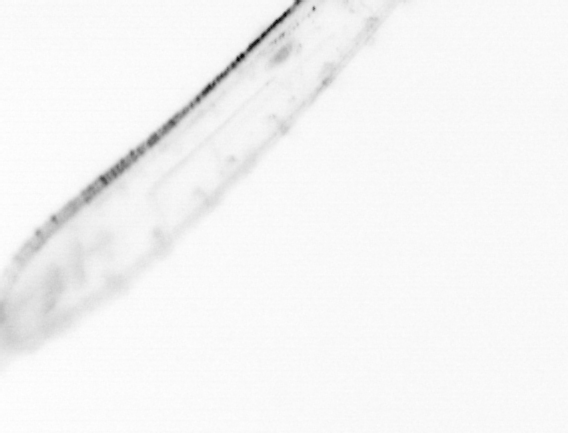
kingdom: Chromista
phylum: Ochrophyta
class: Bacillariophyceae
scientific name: Bacillariophyceae
